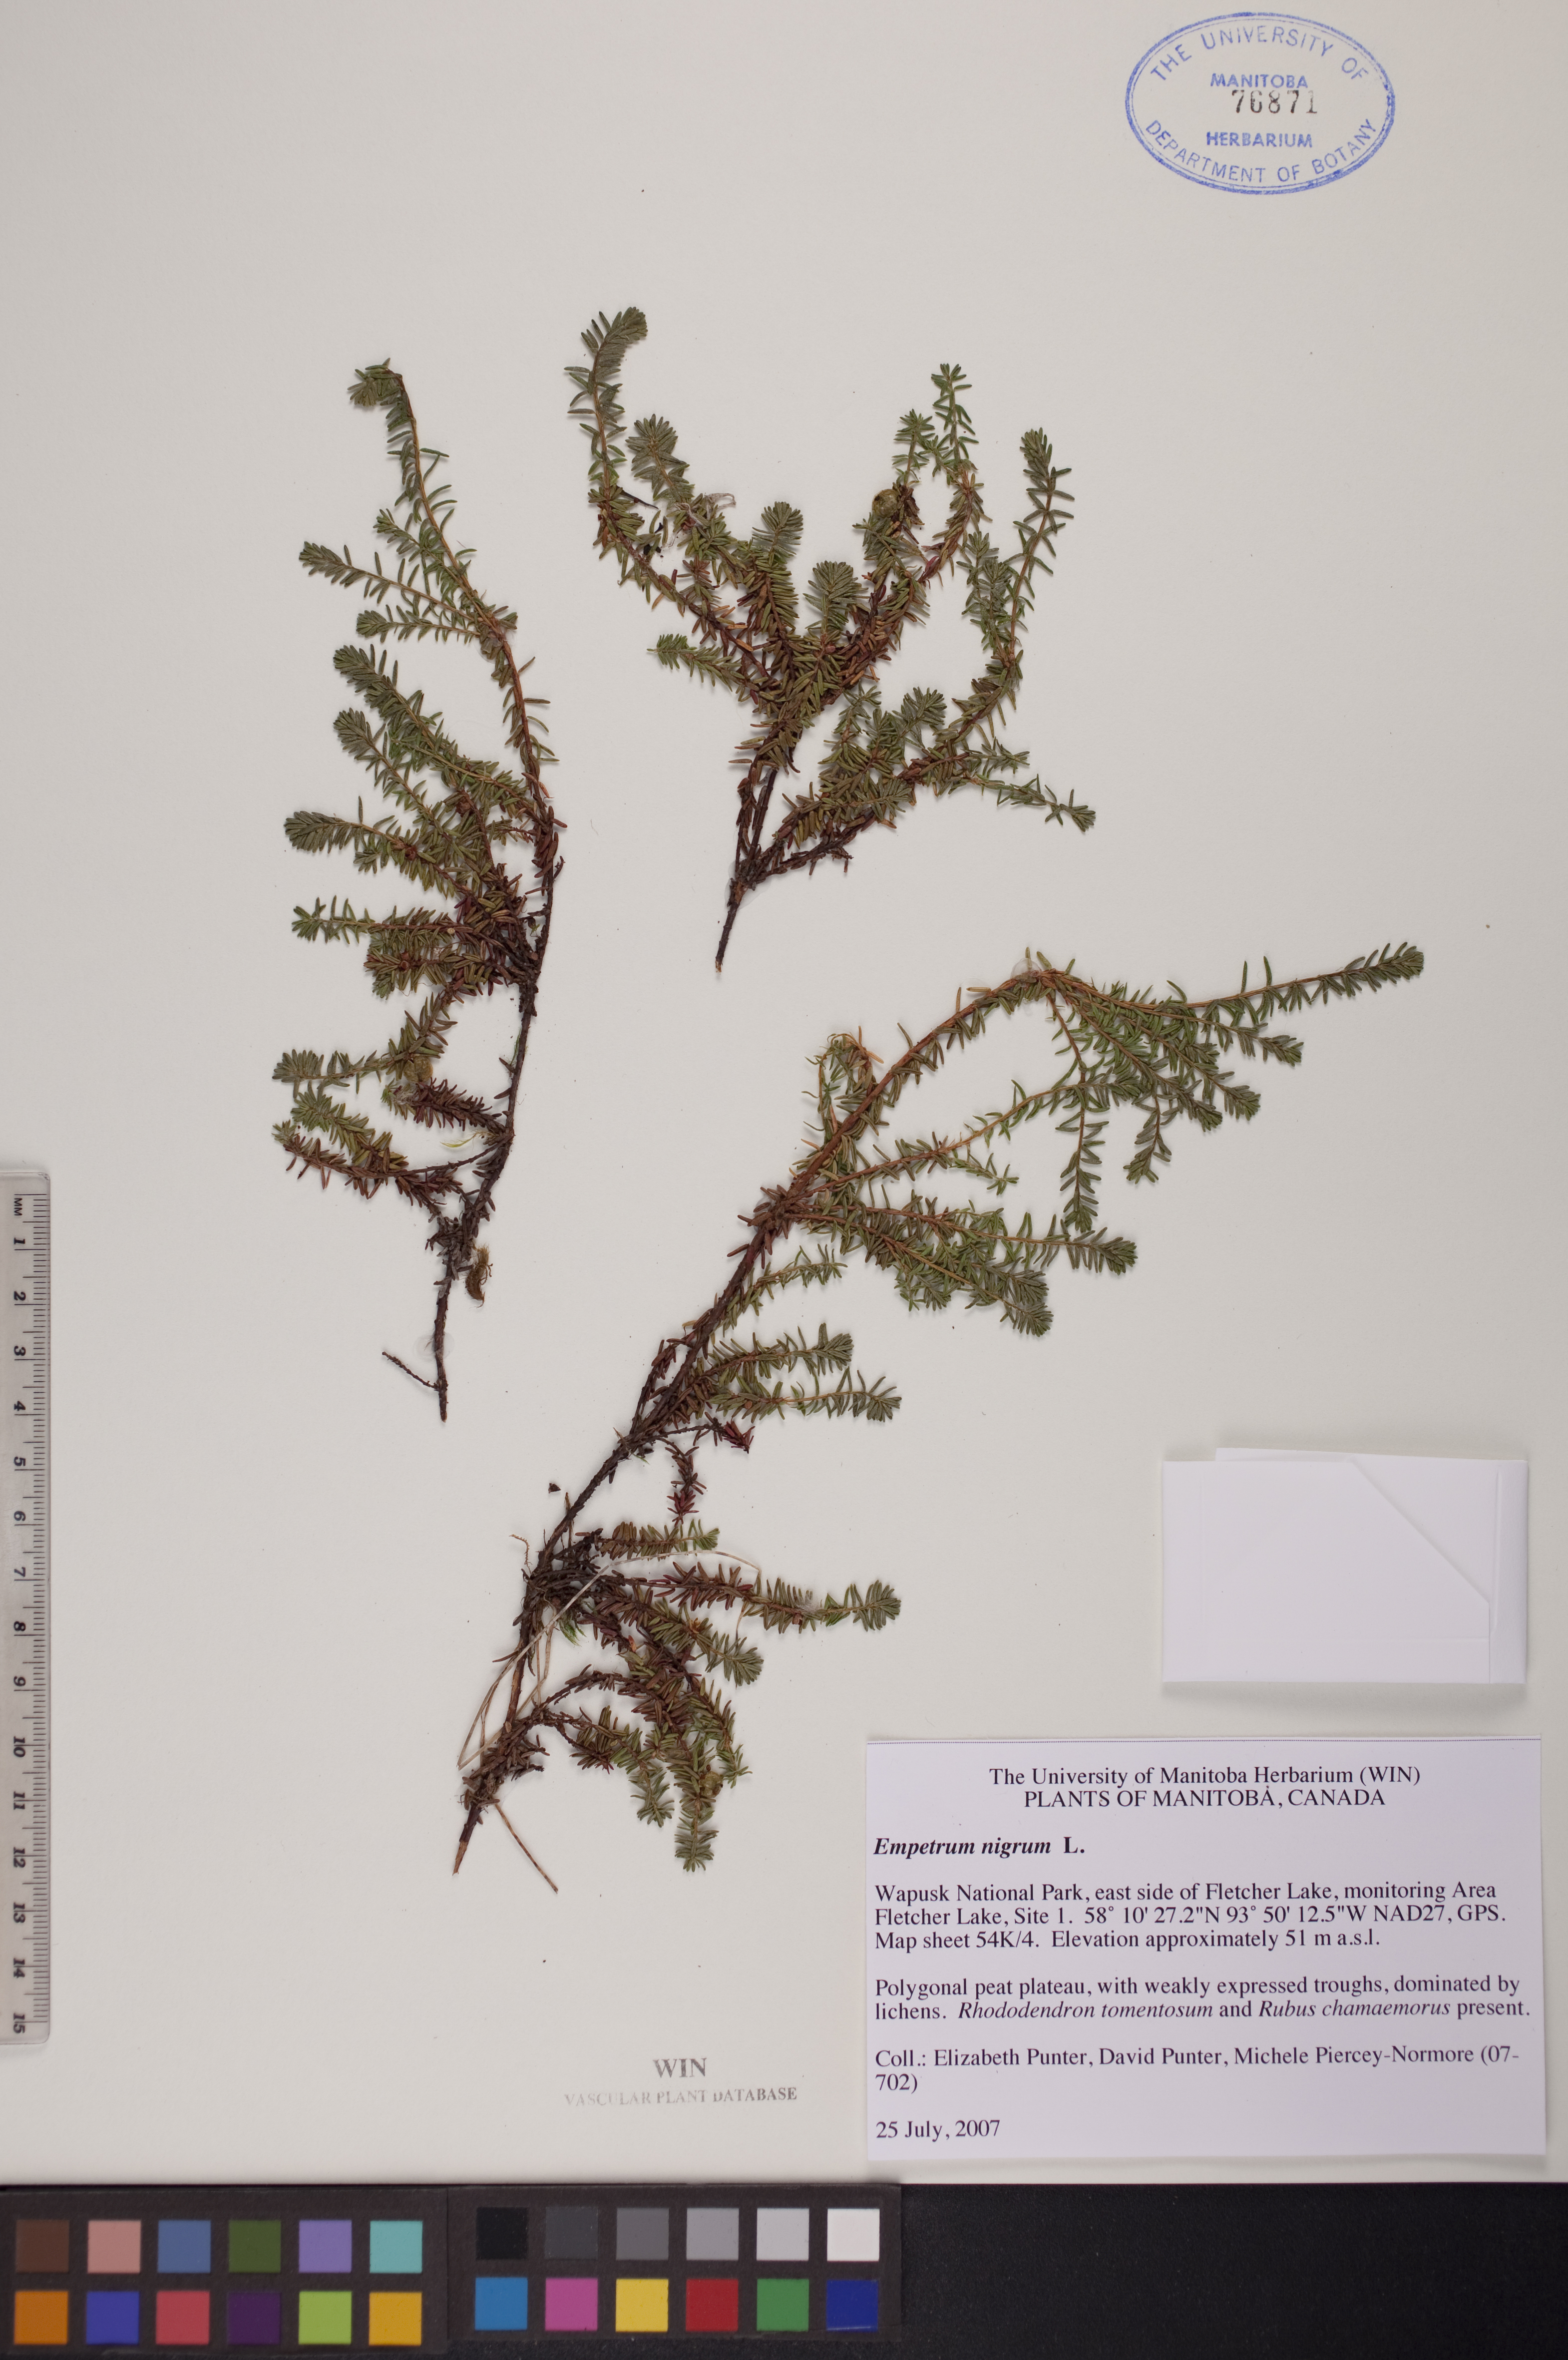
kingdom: Plantae
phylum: Tracheophyta
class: Magnoliopsida
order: Ericales
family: Ericaceae
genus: Empetrum
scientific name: Empetrum nigrum
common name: Black crowberry
